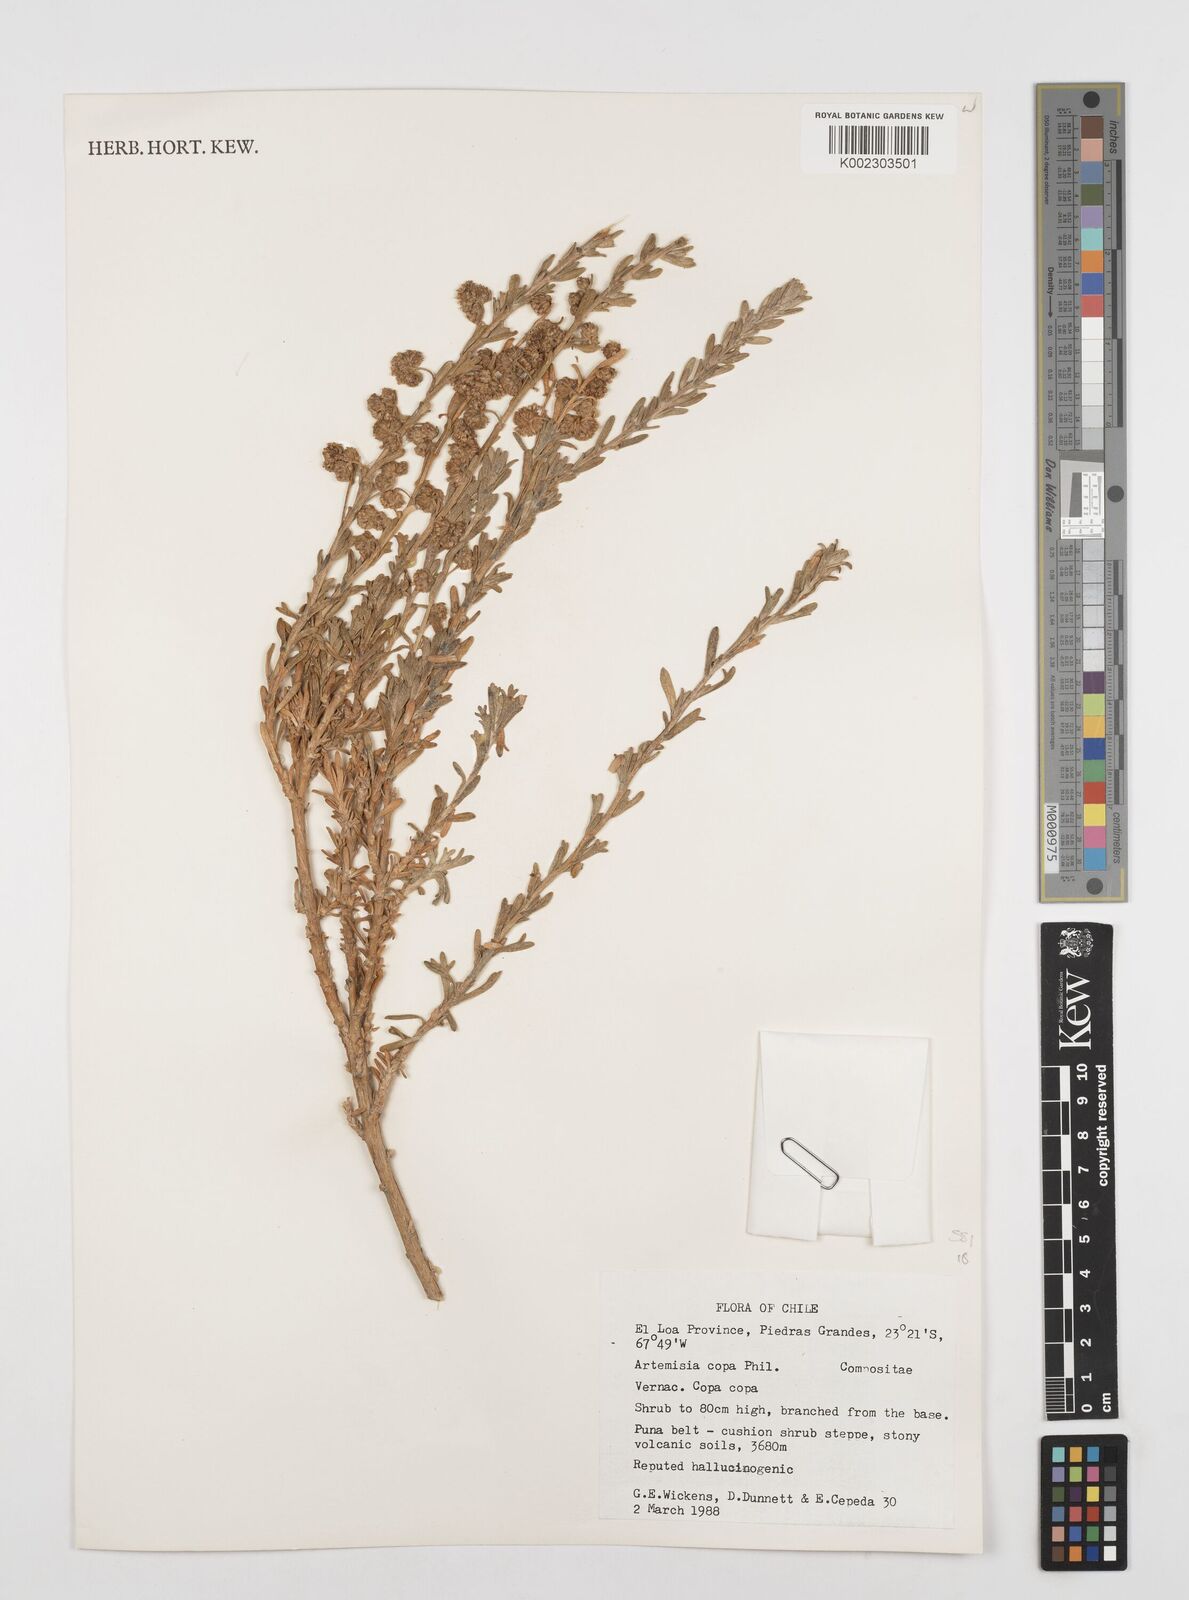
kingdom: Plantae
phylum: Tracheophyta
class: Magnoliopsida
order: Asterales
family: Asteraceae
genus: Artemisia
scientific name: Artemisia copa
